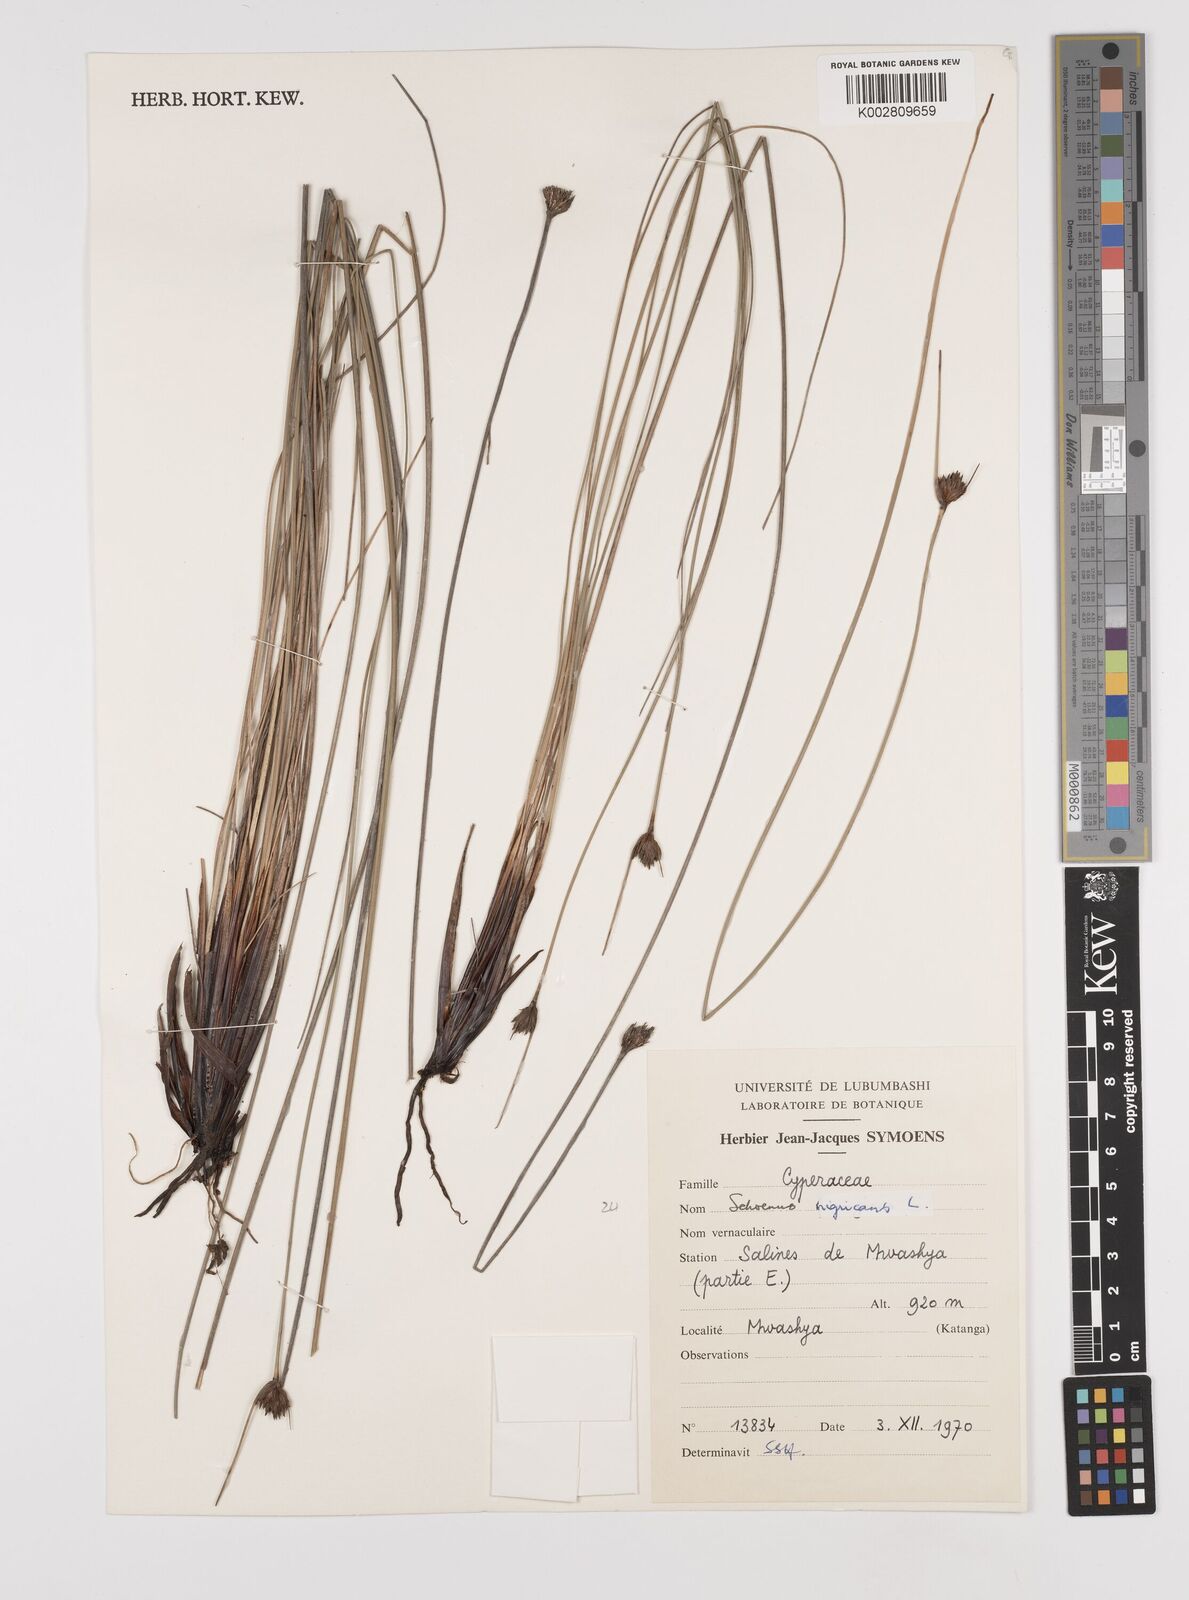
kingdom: Plantae
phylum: Tracheophyta
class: Liliopsida
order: Poales
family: Cyperaceae
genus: Schoenus
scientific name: Schoenus nigricans
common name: Black bog-rush
